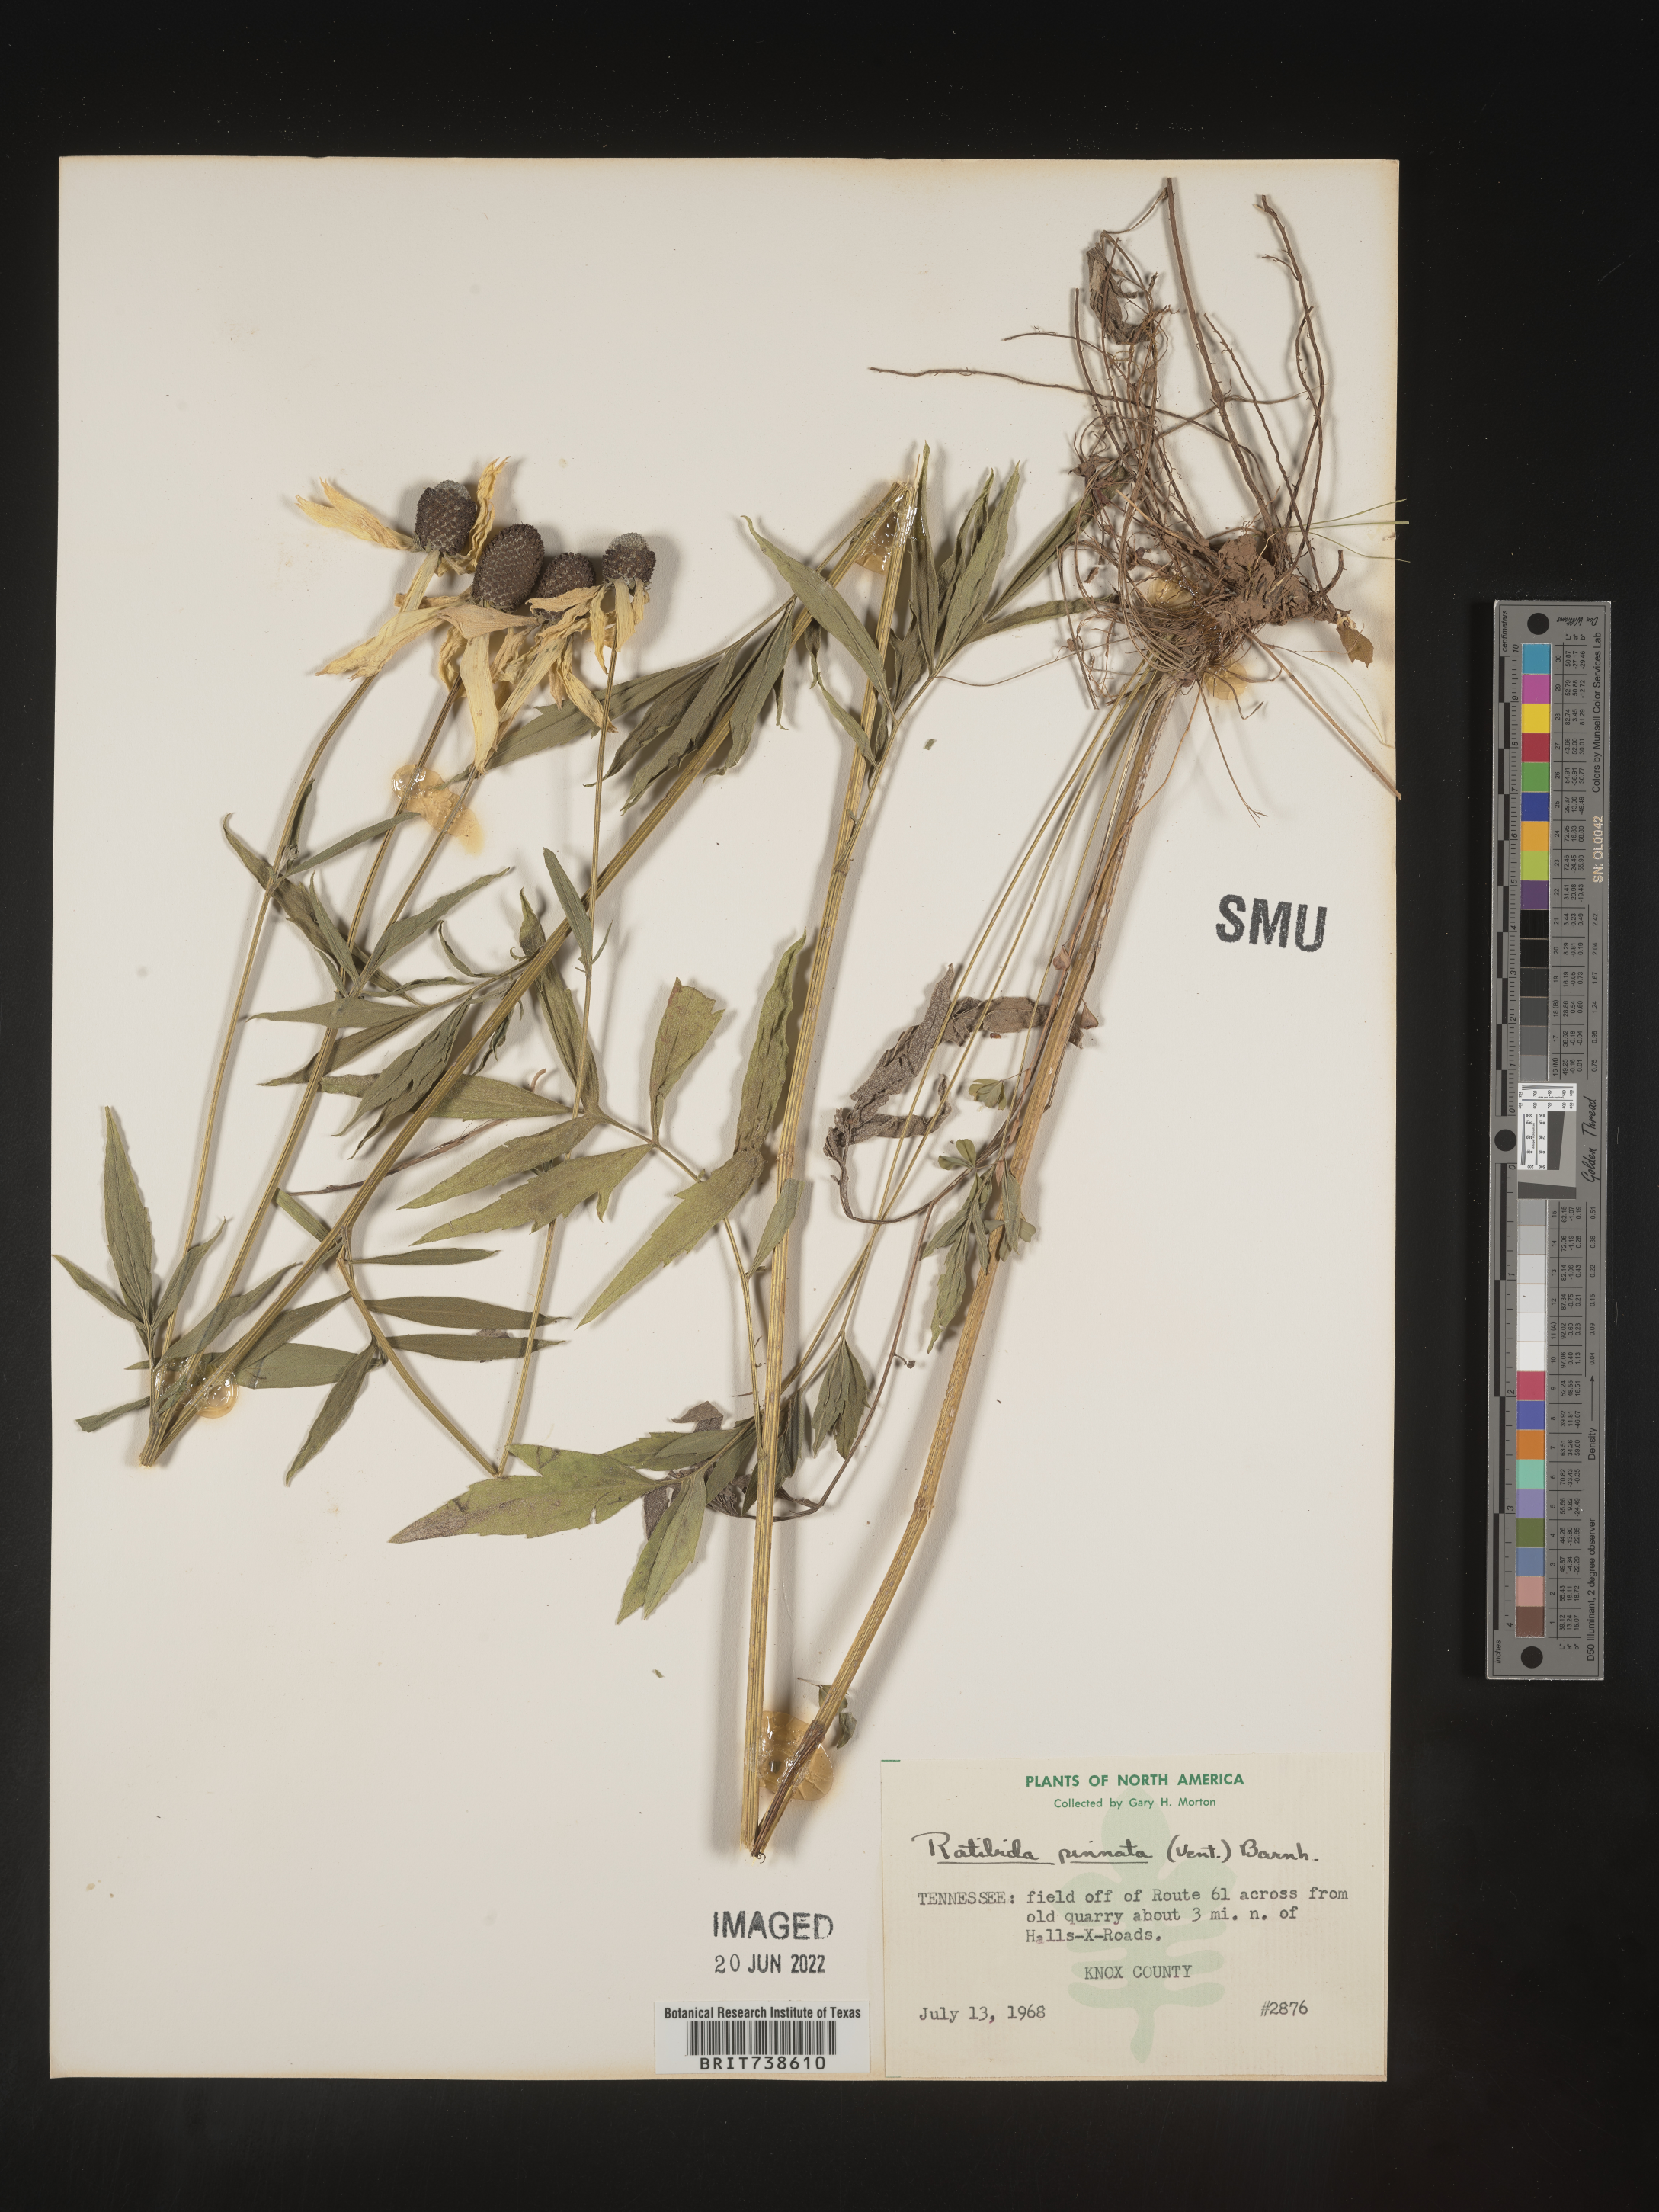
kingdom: Plantae
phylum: Tracheophyta
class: Magnoliopsida
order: Asterales
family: Asteraceae
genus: Ratibida
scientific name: Ratibida pinnata
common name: Drooping prairie-coneflower
